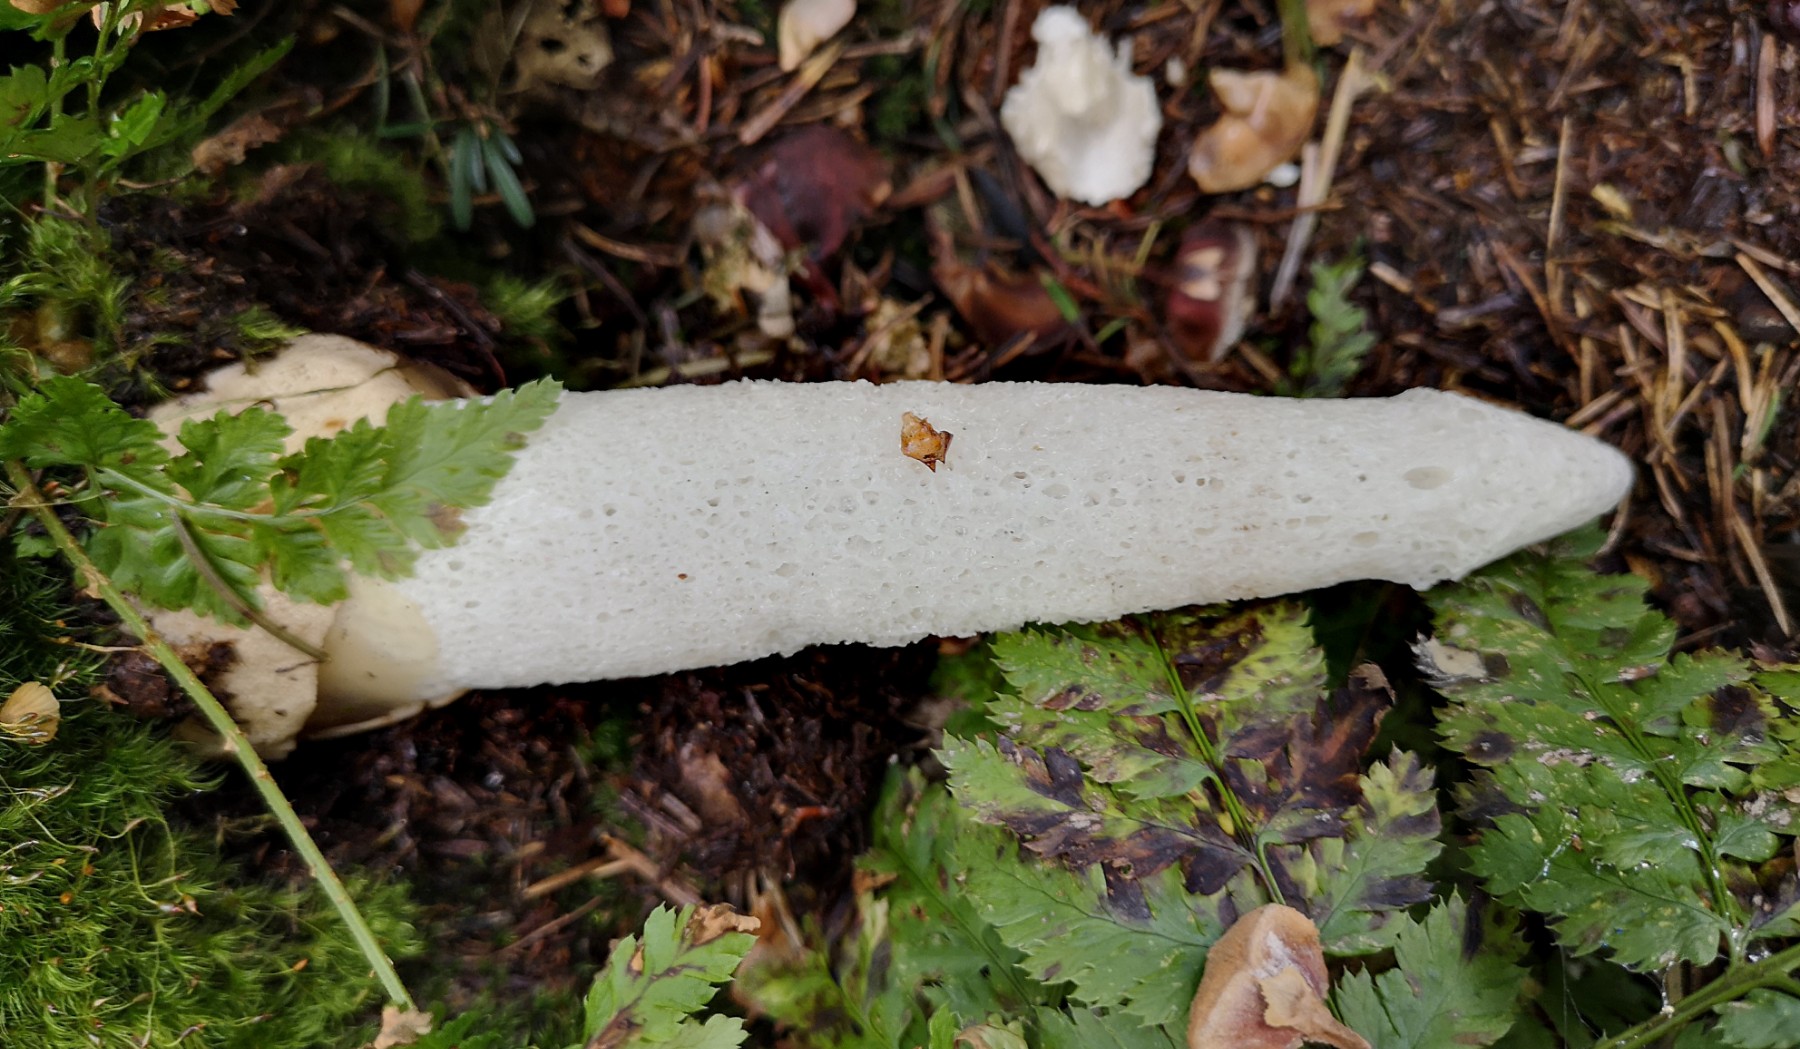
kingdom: Fungi
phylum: Basidiomycota
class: Agaricomycetes
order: Phallales
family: Phallaceae
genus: Phallus
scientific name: Phallus impudicus
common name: almindelig stinksvamp
